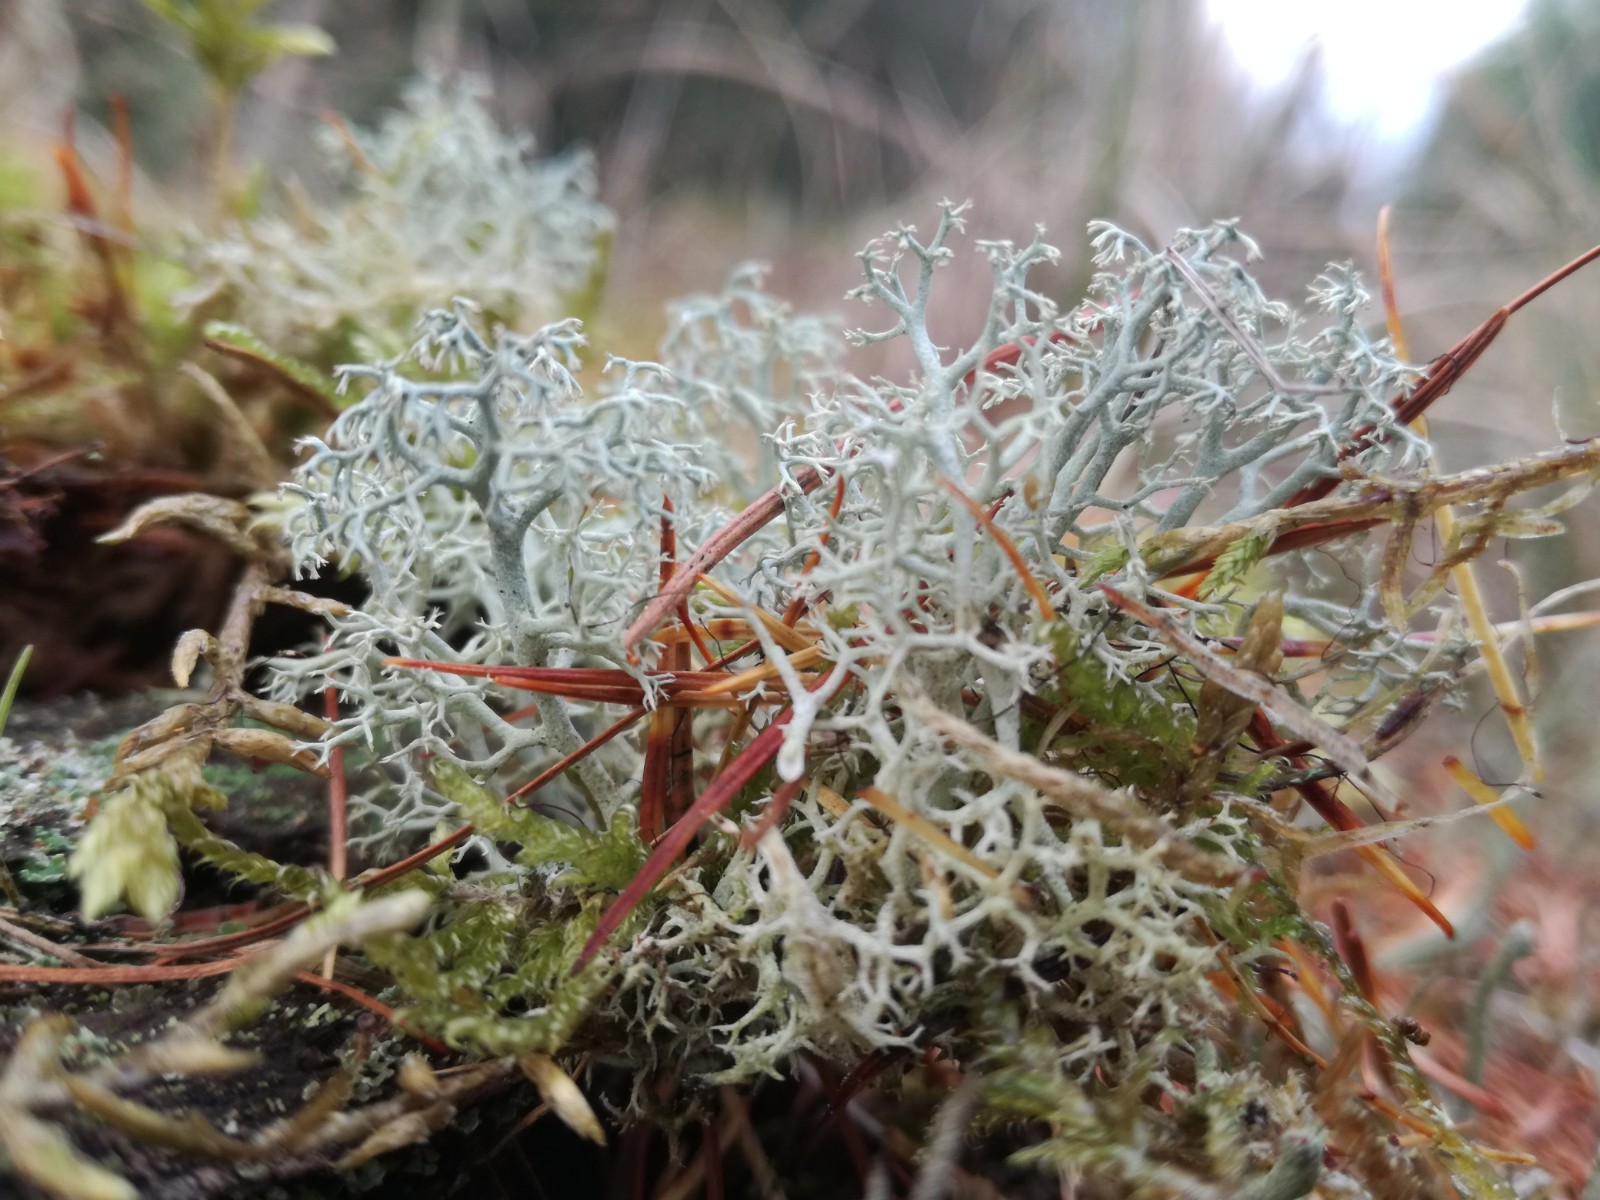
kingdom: Fungi
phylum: Ascomycota
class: Lecanoromycetes
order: Lecanorales
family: Cladoniaceae
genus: Cladonia
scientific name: Cladonia portentosa
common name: hede-rensdyrlav
